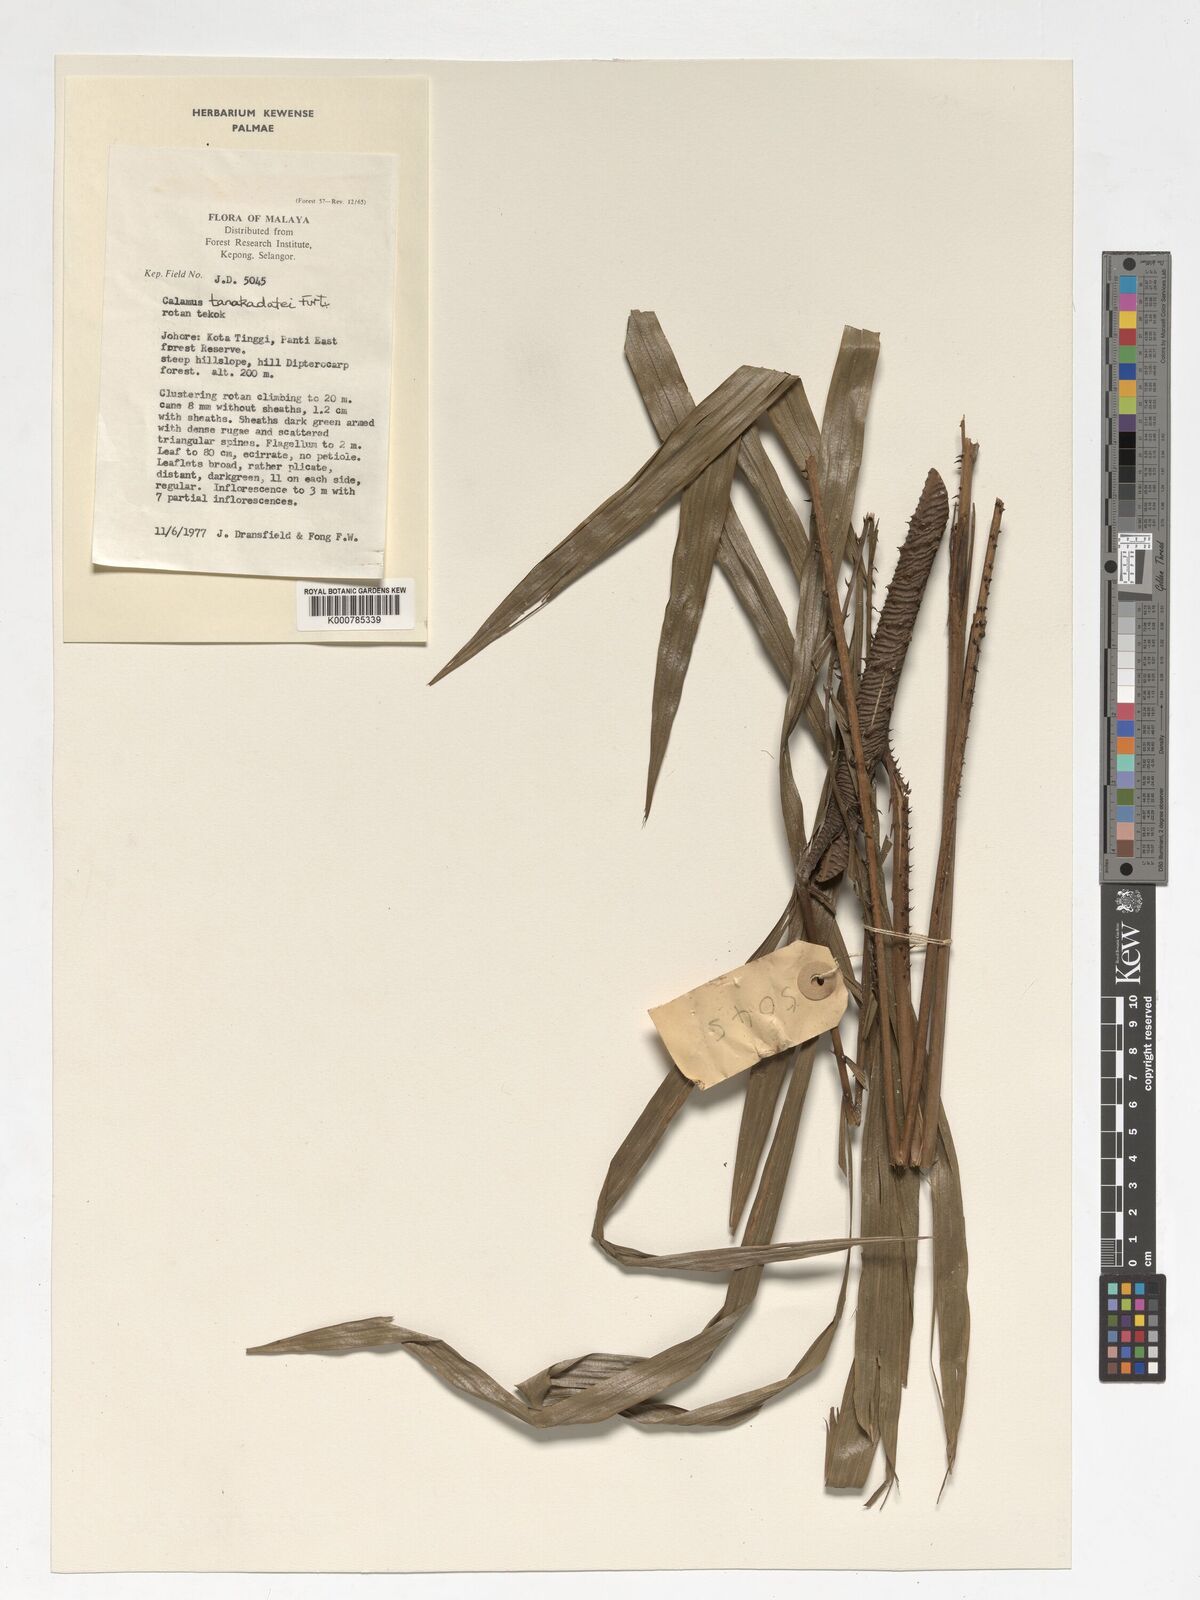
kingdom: Plantae
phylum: Tracheophyta
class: Liliopsida
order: Arecales
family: Arecaceae
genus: Calamus
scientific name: Calamus ruvidus
